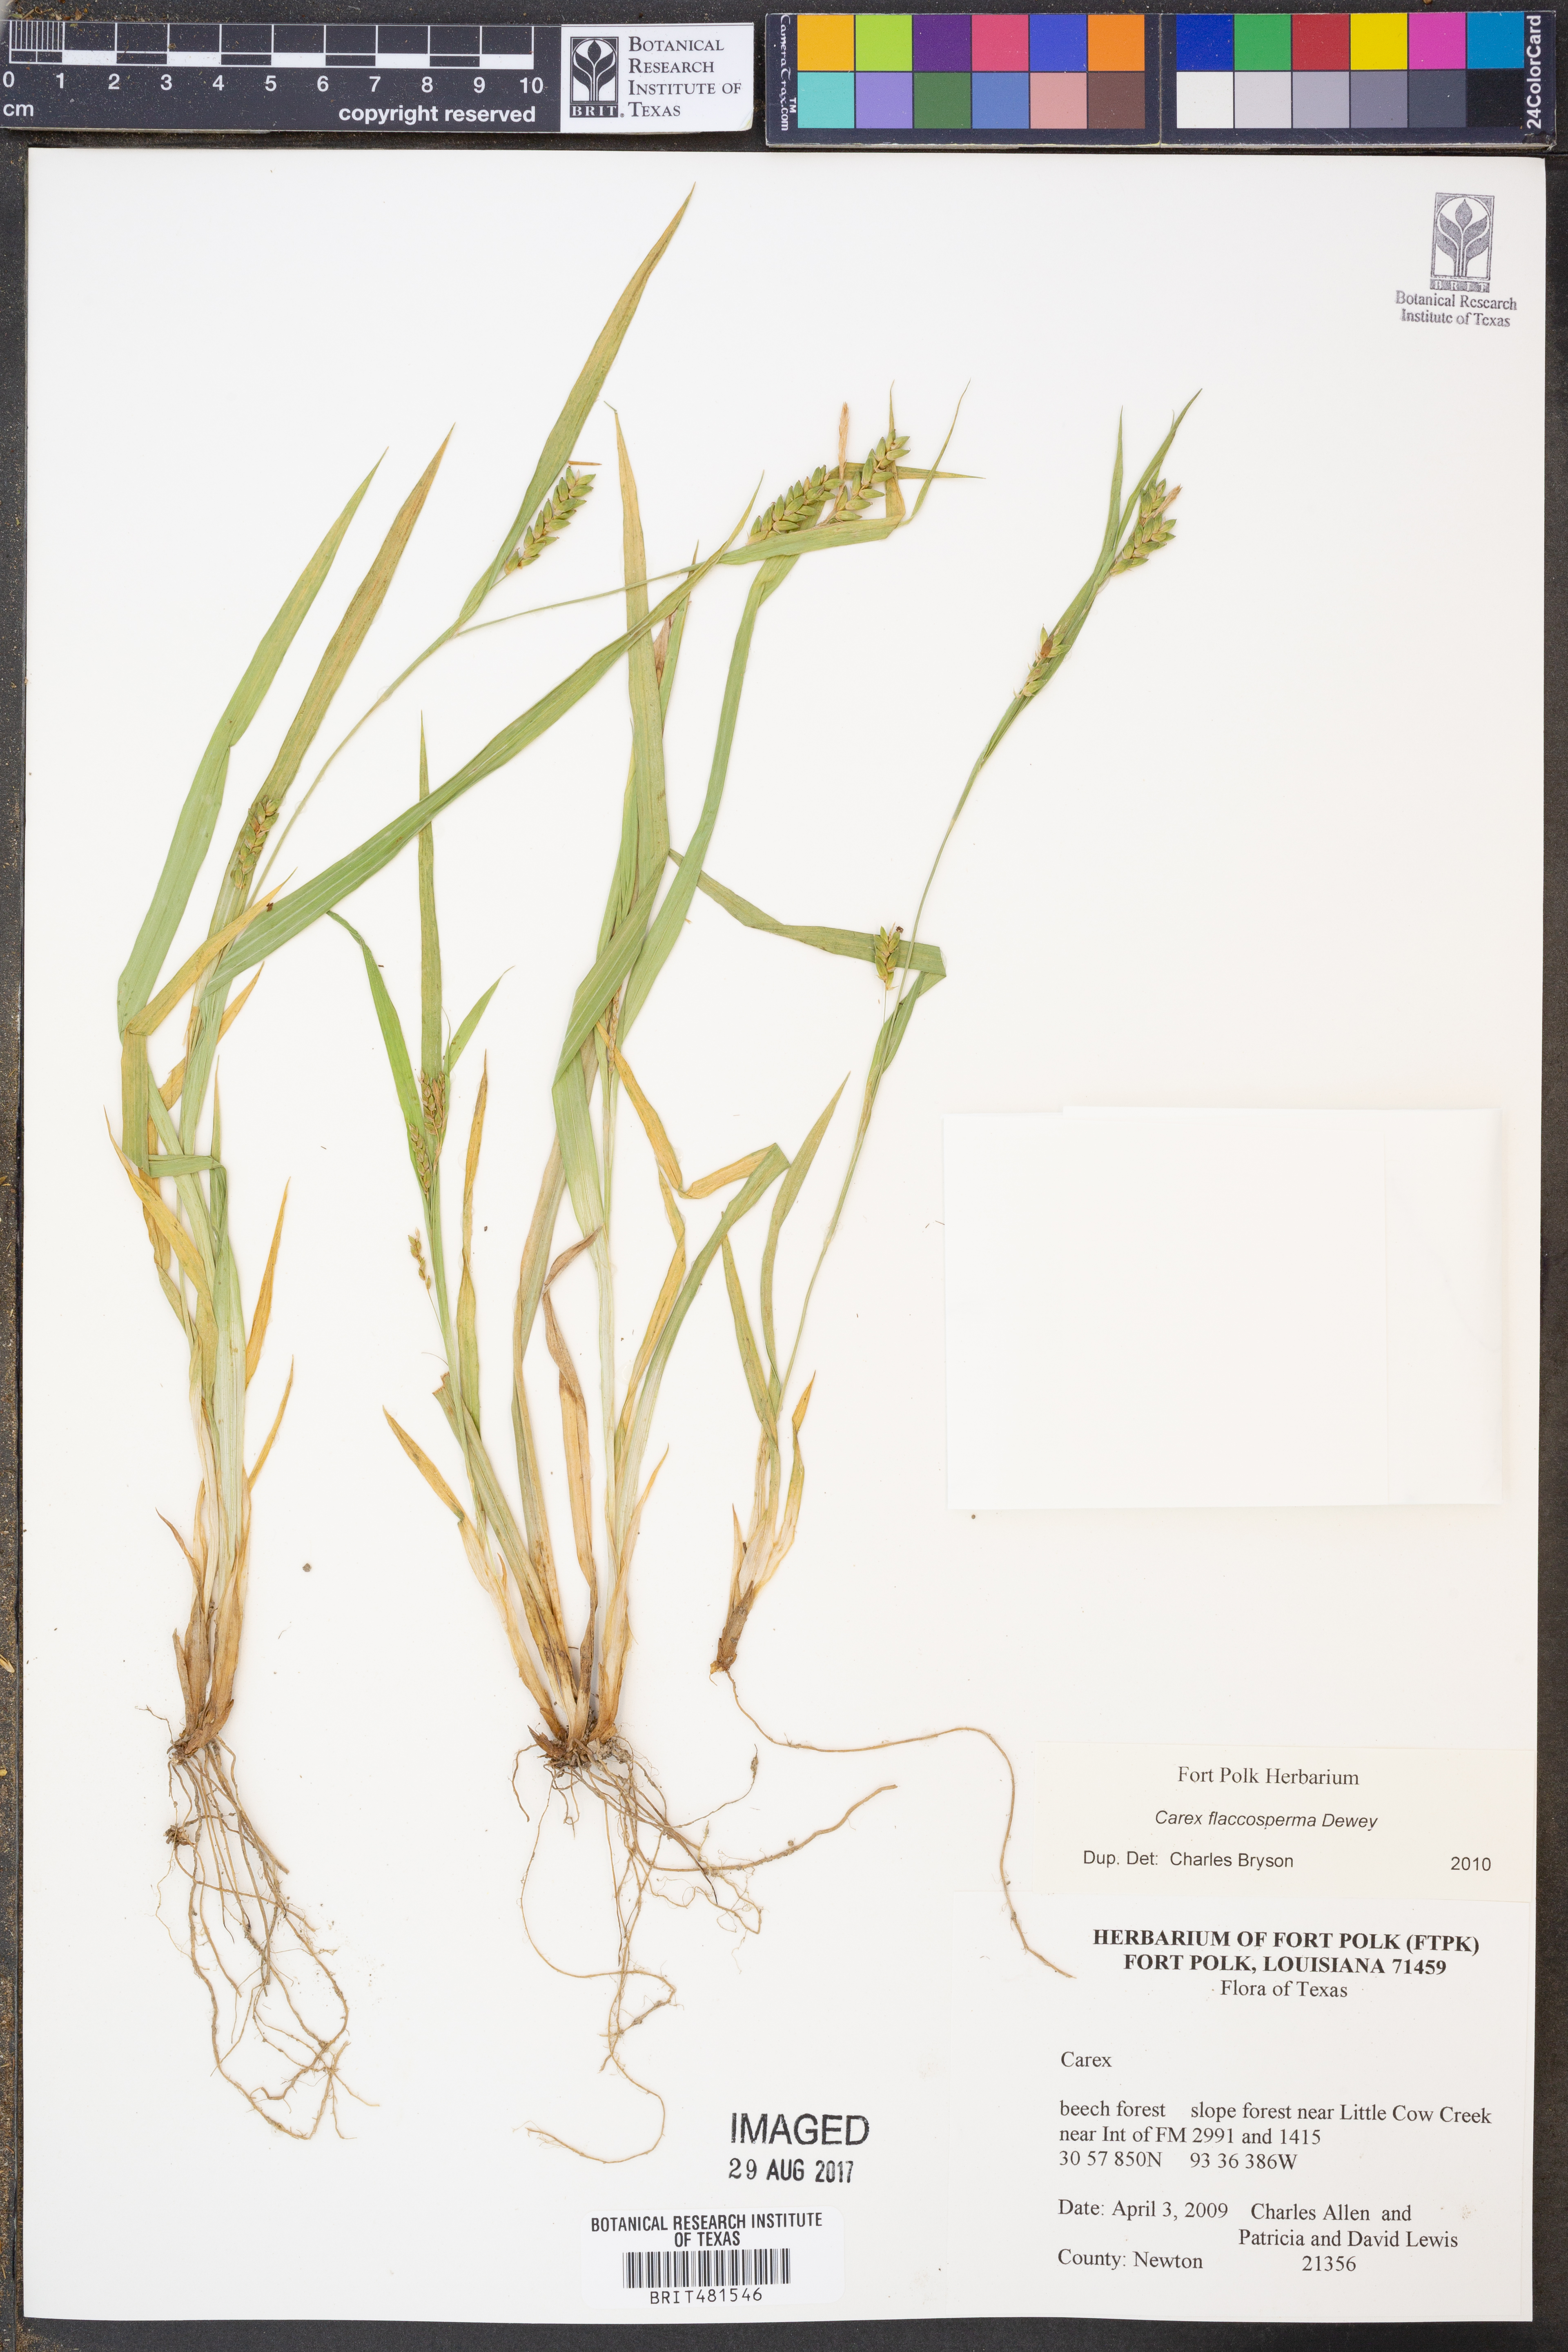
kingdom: Plantae
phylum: Tracheophyta
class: Liliopsida
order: Poales
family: Cyperaceae
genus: Carex
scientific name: Carex flaccosperma
